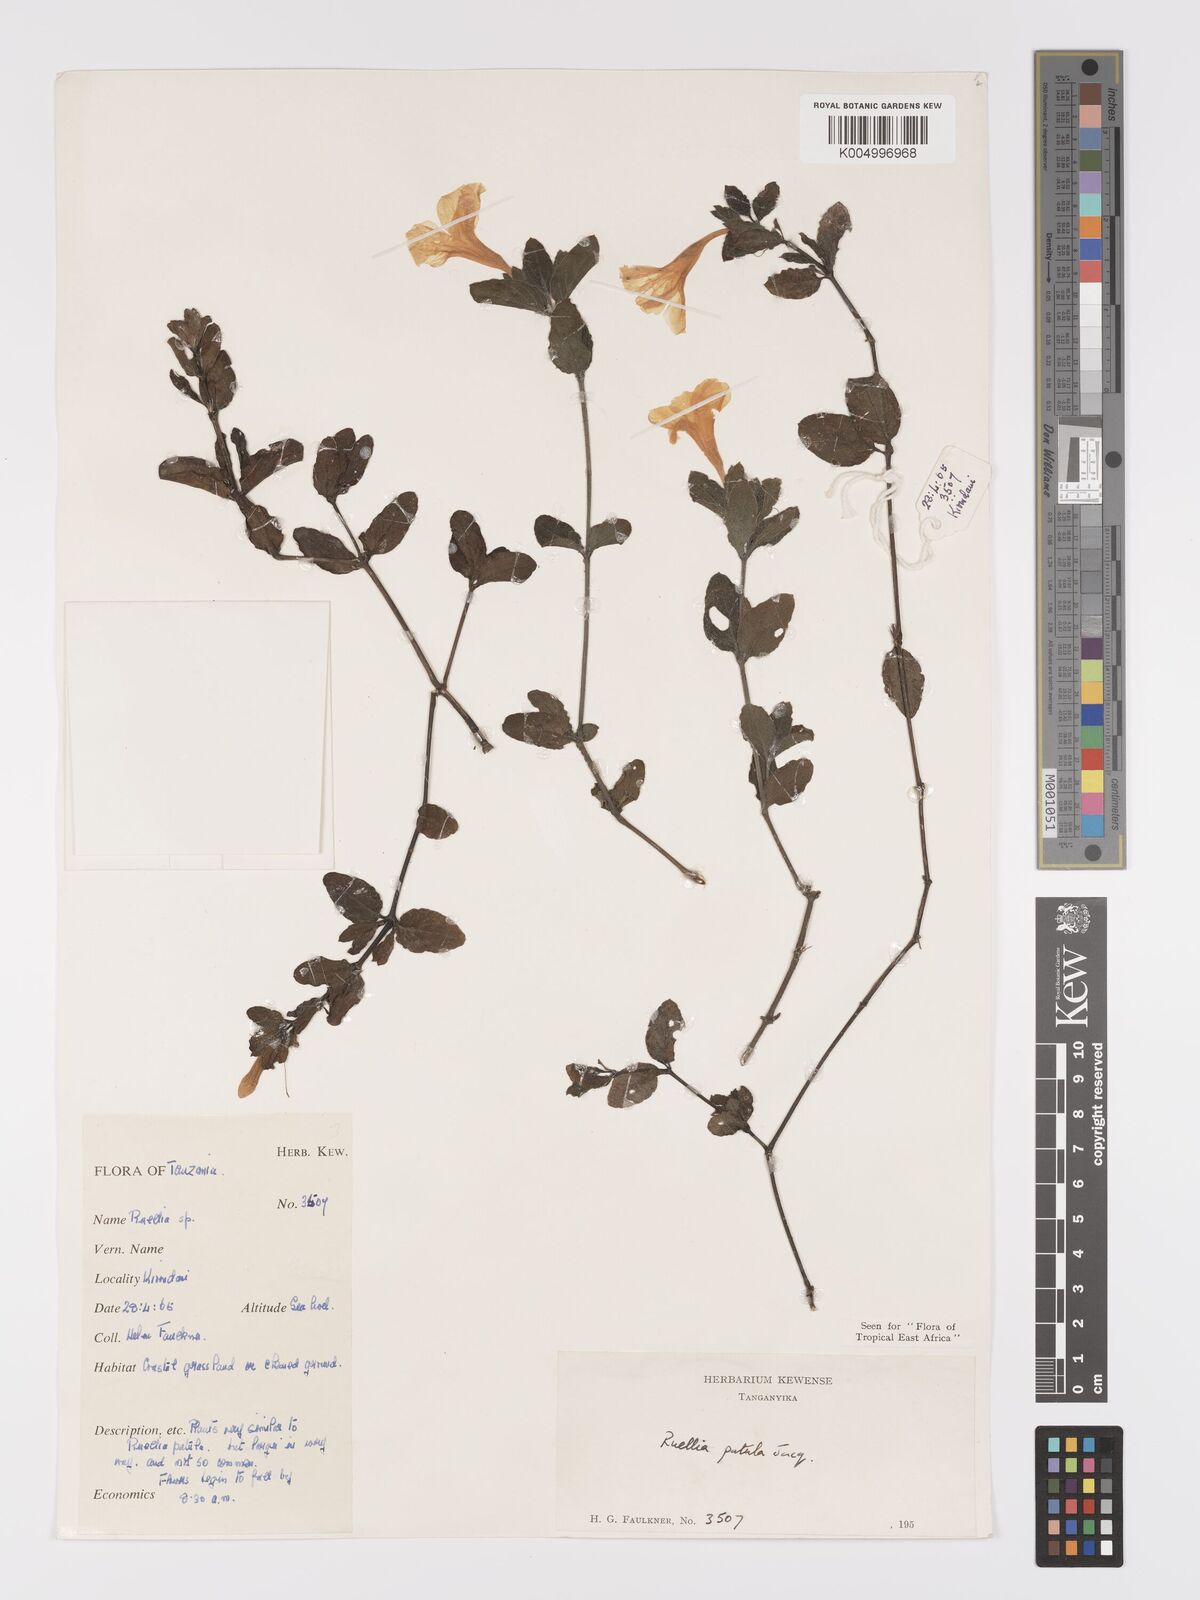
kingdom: Plantae
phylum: Tracheophyta
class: Magnoliopsida
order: Lamiales
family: Acanthaceae
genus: Ruellia
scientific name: Ruellia patula
